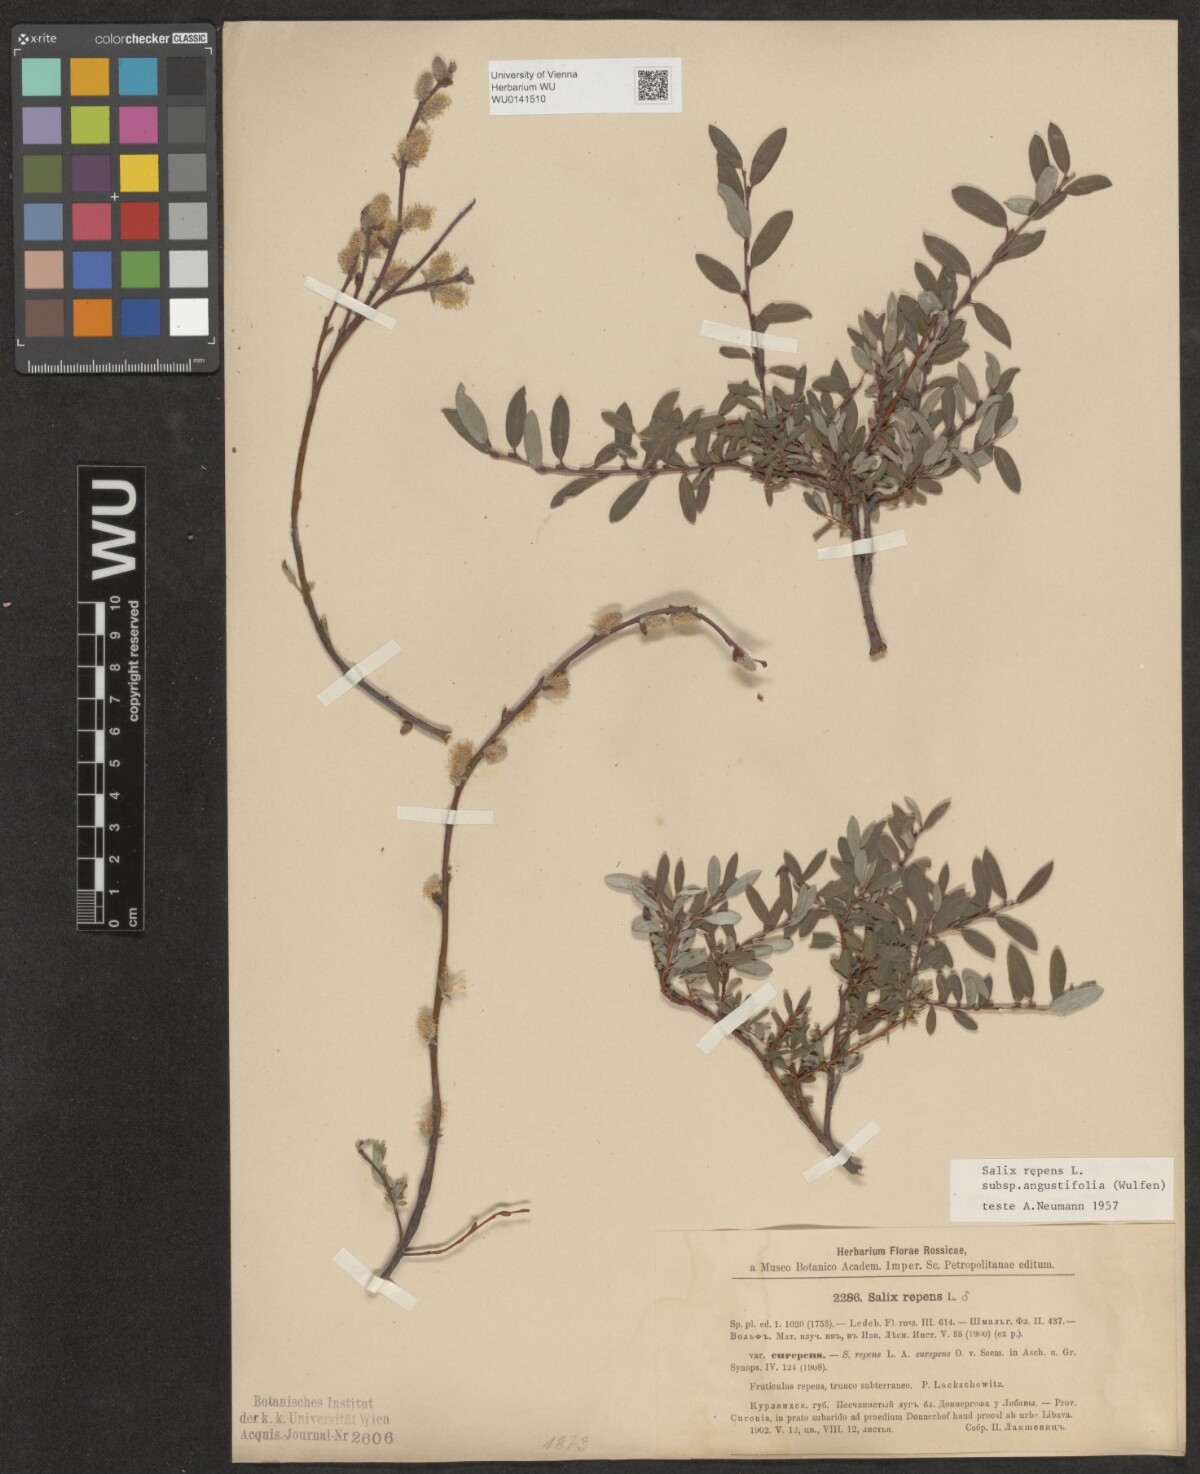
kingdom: Plantae
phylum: Tracheophyta
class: Magnoliopsida
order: Malpighiales
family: Salicaceae
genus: Salix
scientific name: Salix rosmarinifolia
